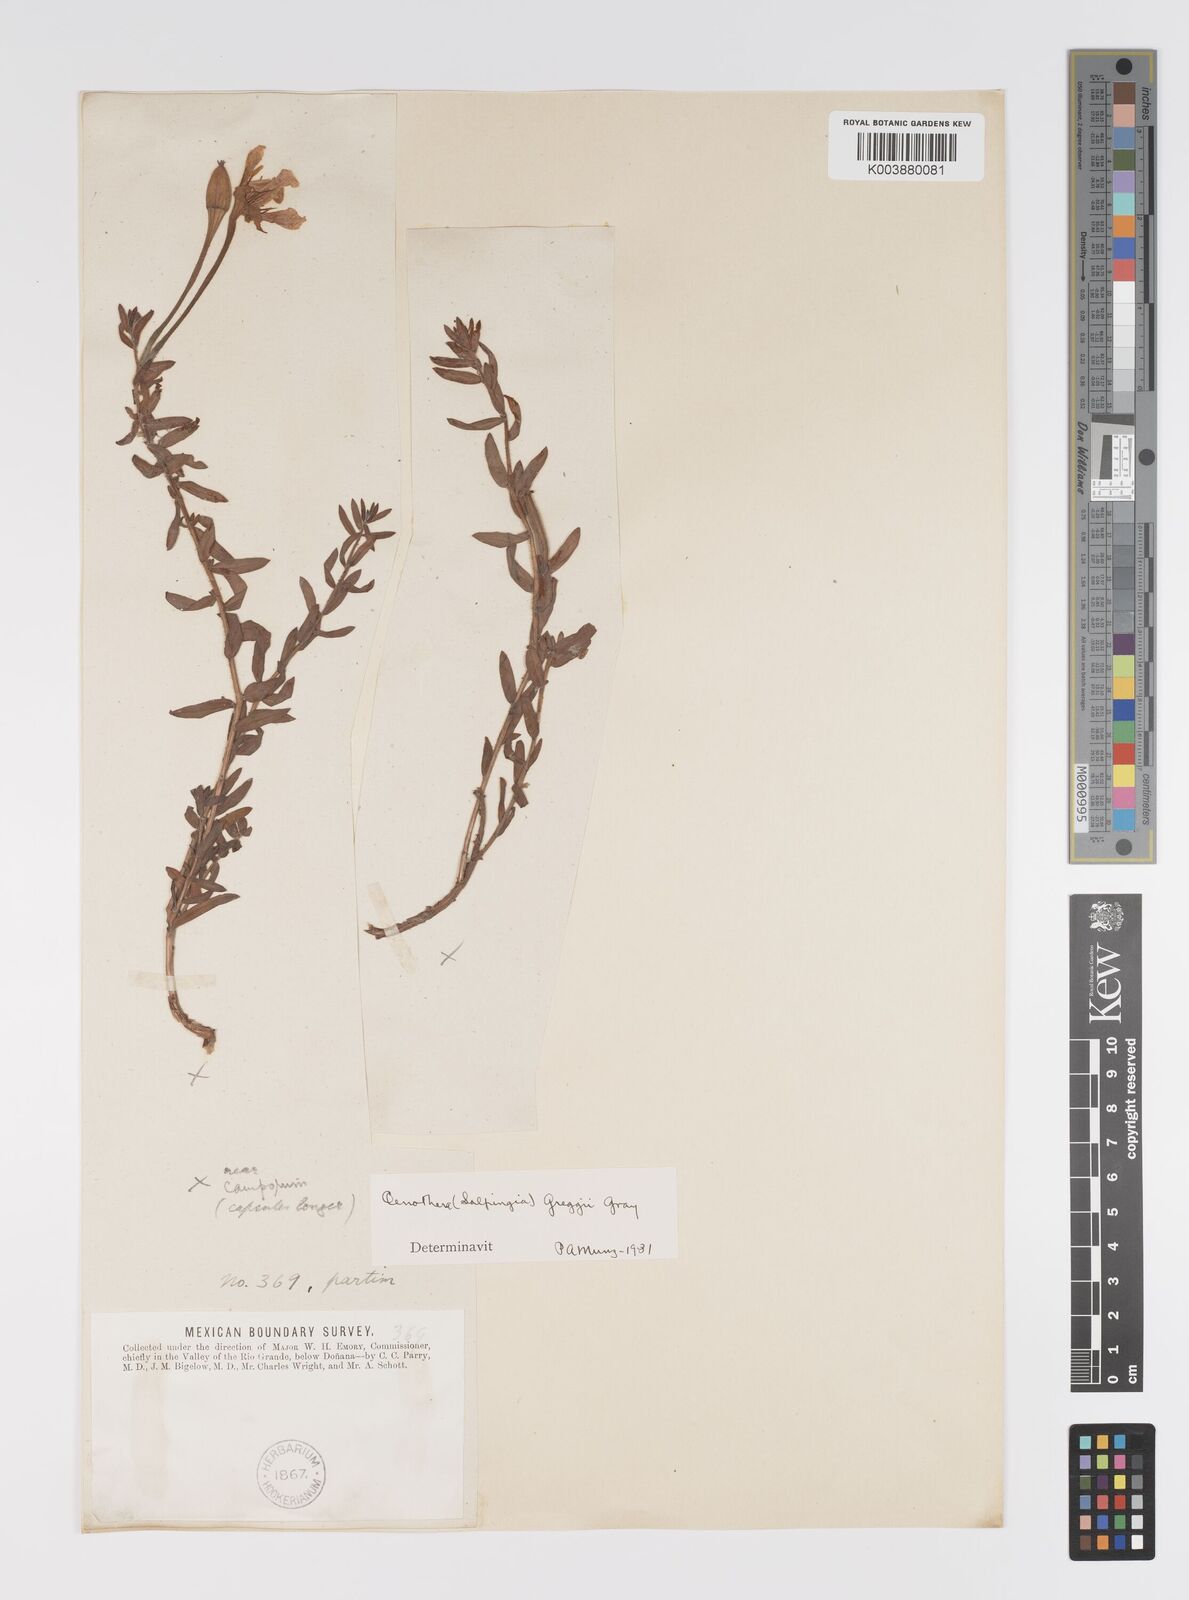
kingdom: Plantae
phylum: Tracheophyta
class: Magnoliopsida
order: Myrtales
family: Onagraceae
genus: Oenothera
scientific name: Oenothera hartwegii
